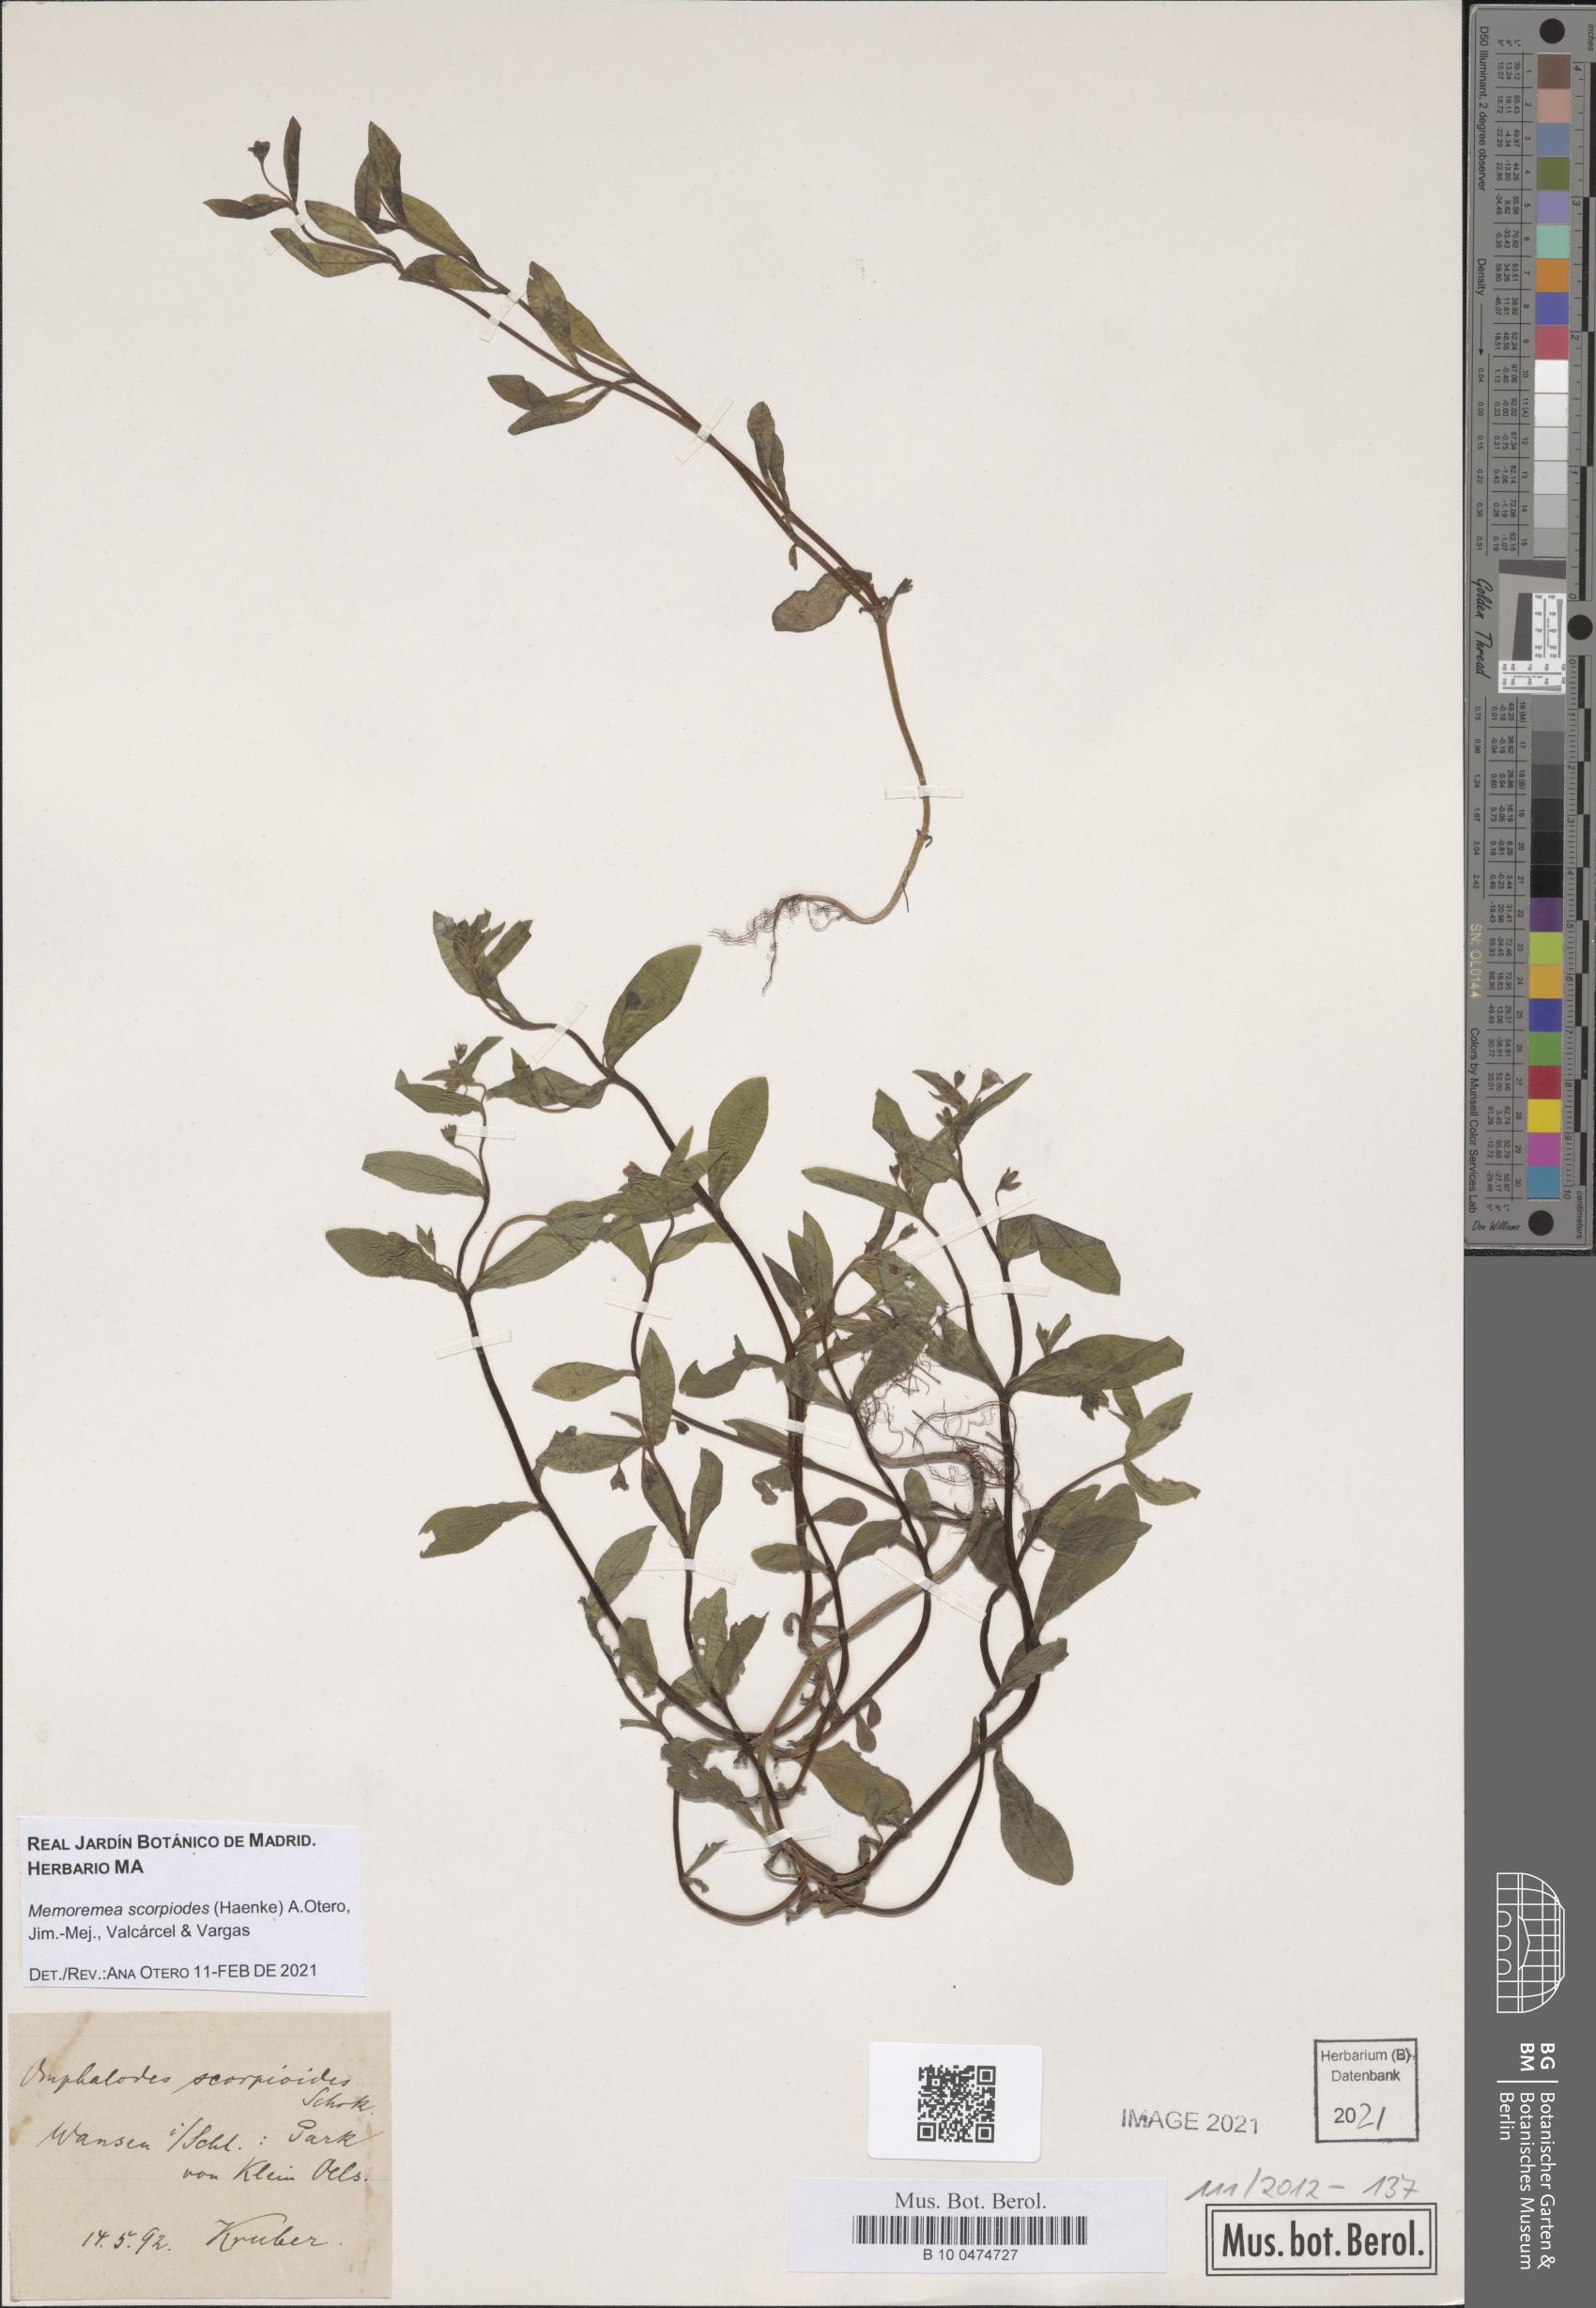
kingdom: Plantae
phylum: Tracheophyta
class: Magnoliopsida
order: Boraginales
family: Boraginaceae
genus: Memoremea
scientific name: Memoremea scorpioides
